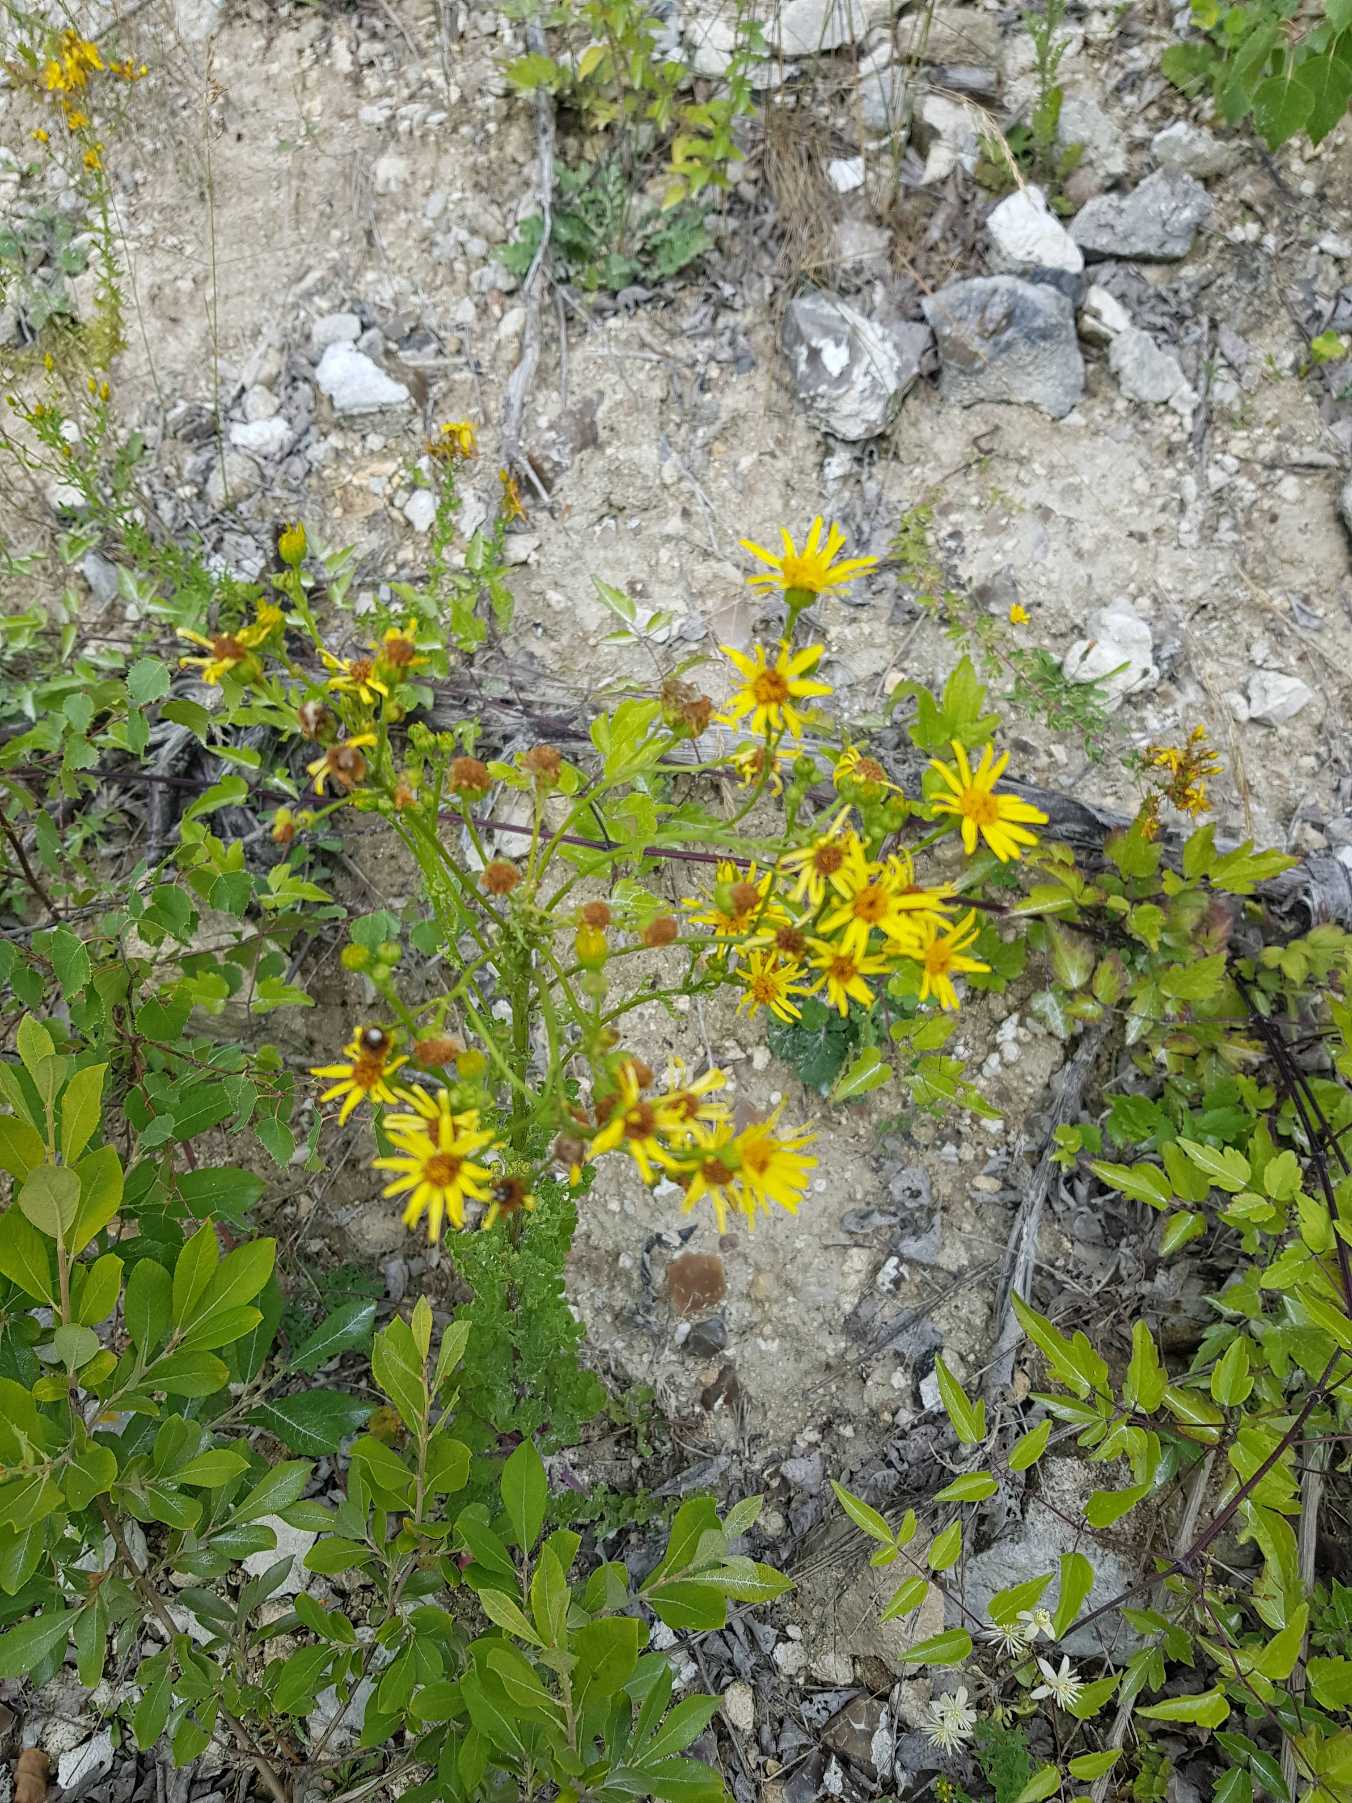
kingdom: Plantae
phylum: Tracheophyta
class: Magnoliopsida
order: Asterales
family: Asteraceae
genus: Jacobaea
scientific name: Jacobaea vulgaris
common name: Eng-brandbæger
